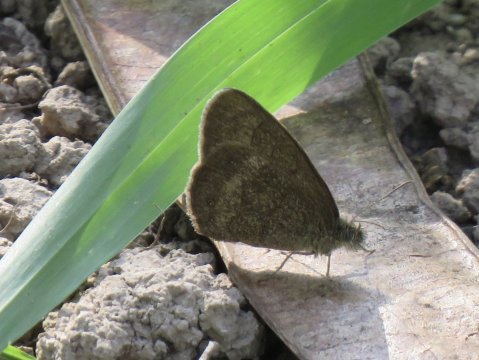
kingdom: Animalia
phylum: Arthropoda
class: Insecta
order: Lepidoptera
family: Nymphalidae
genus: Hermeuptychia
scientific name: Hermeuptychia hermybius
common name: South Texas Satyr
